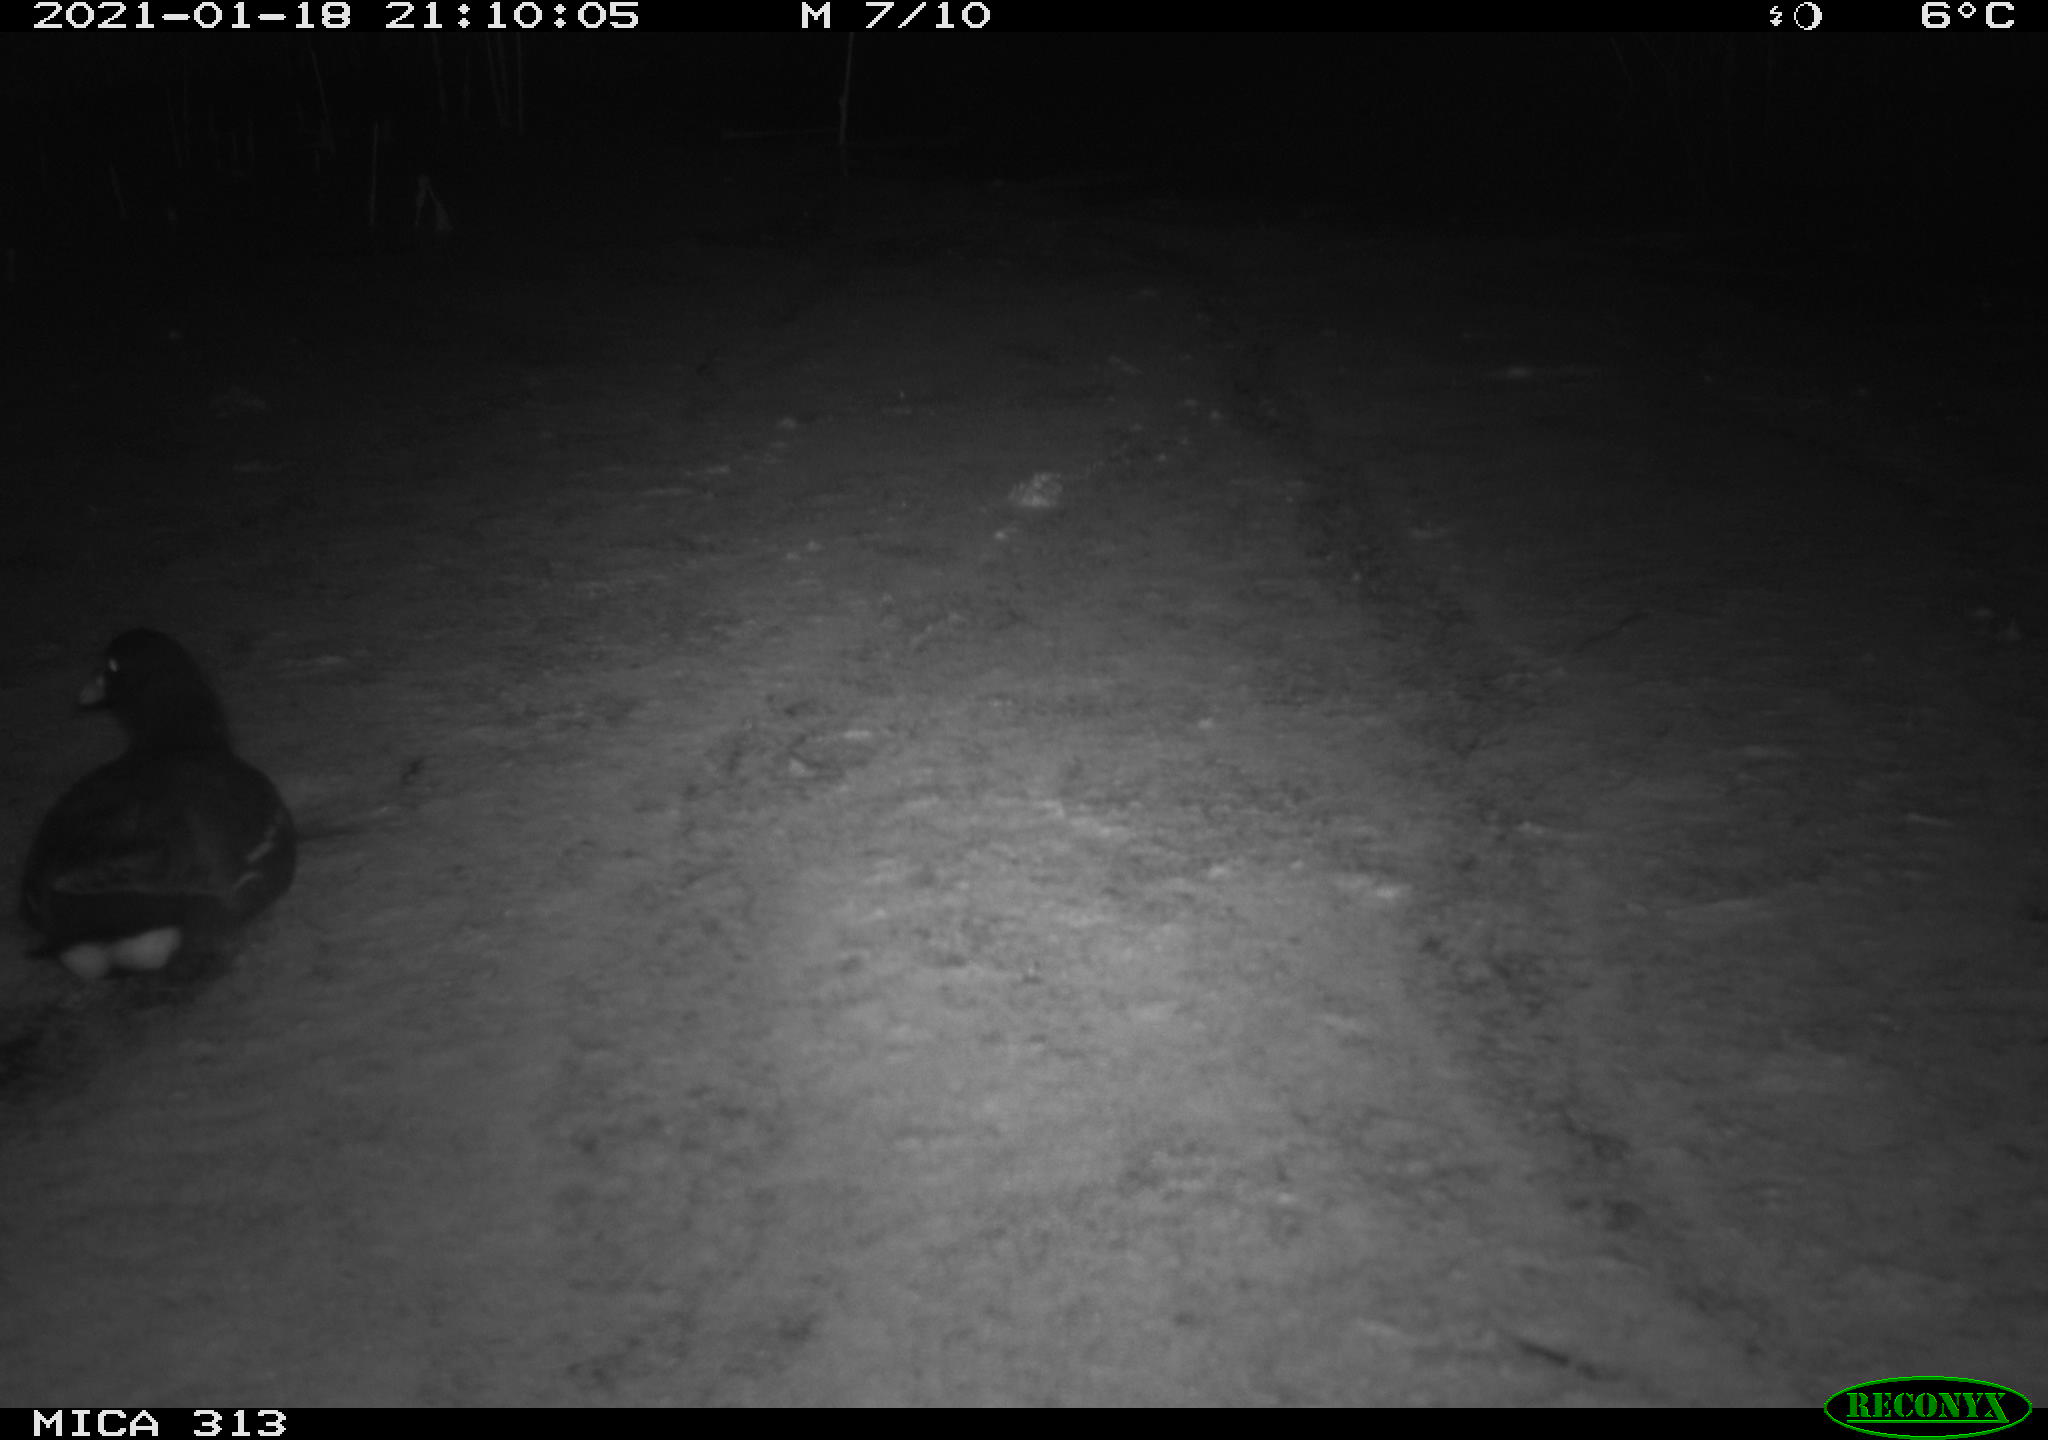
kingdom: Animalia
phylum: Chordata
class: Aves
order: Gruiformes
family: Rallidae
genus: Gallinula
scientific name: Gallinula chloropus
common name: Common moorhen
